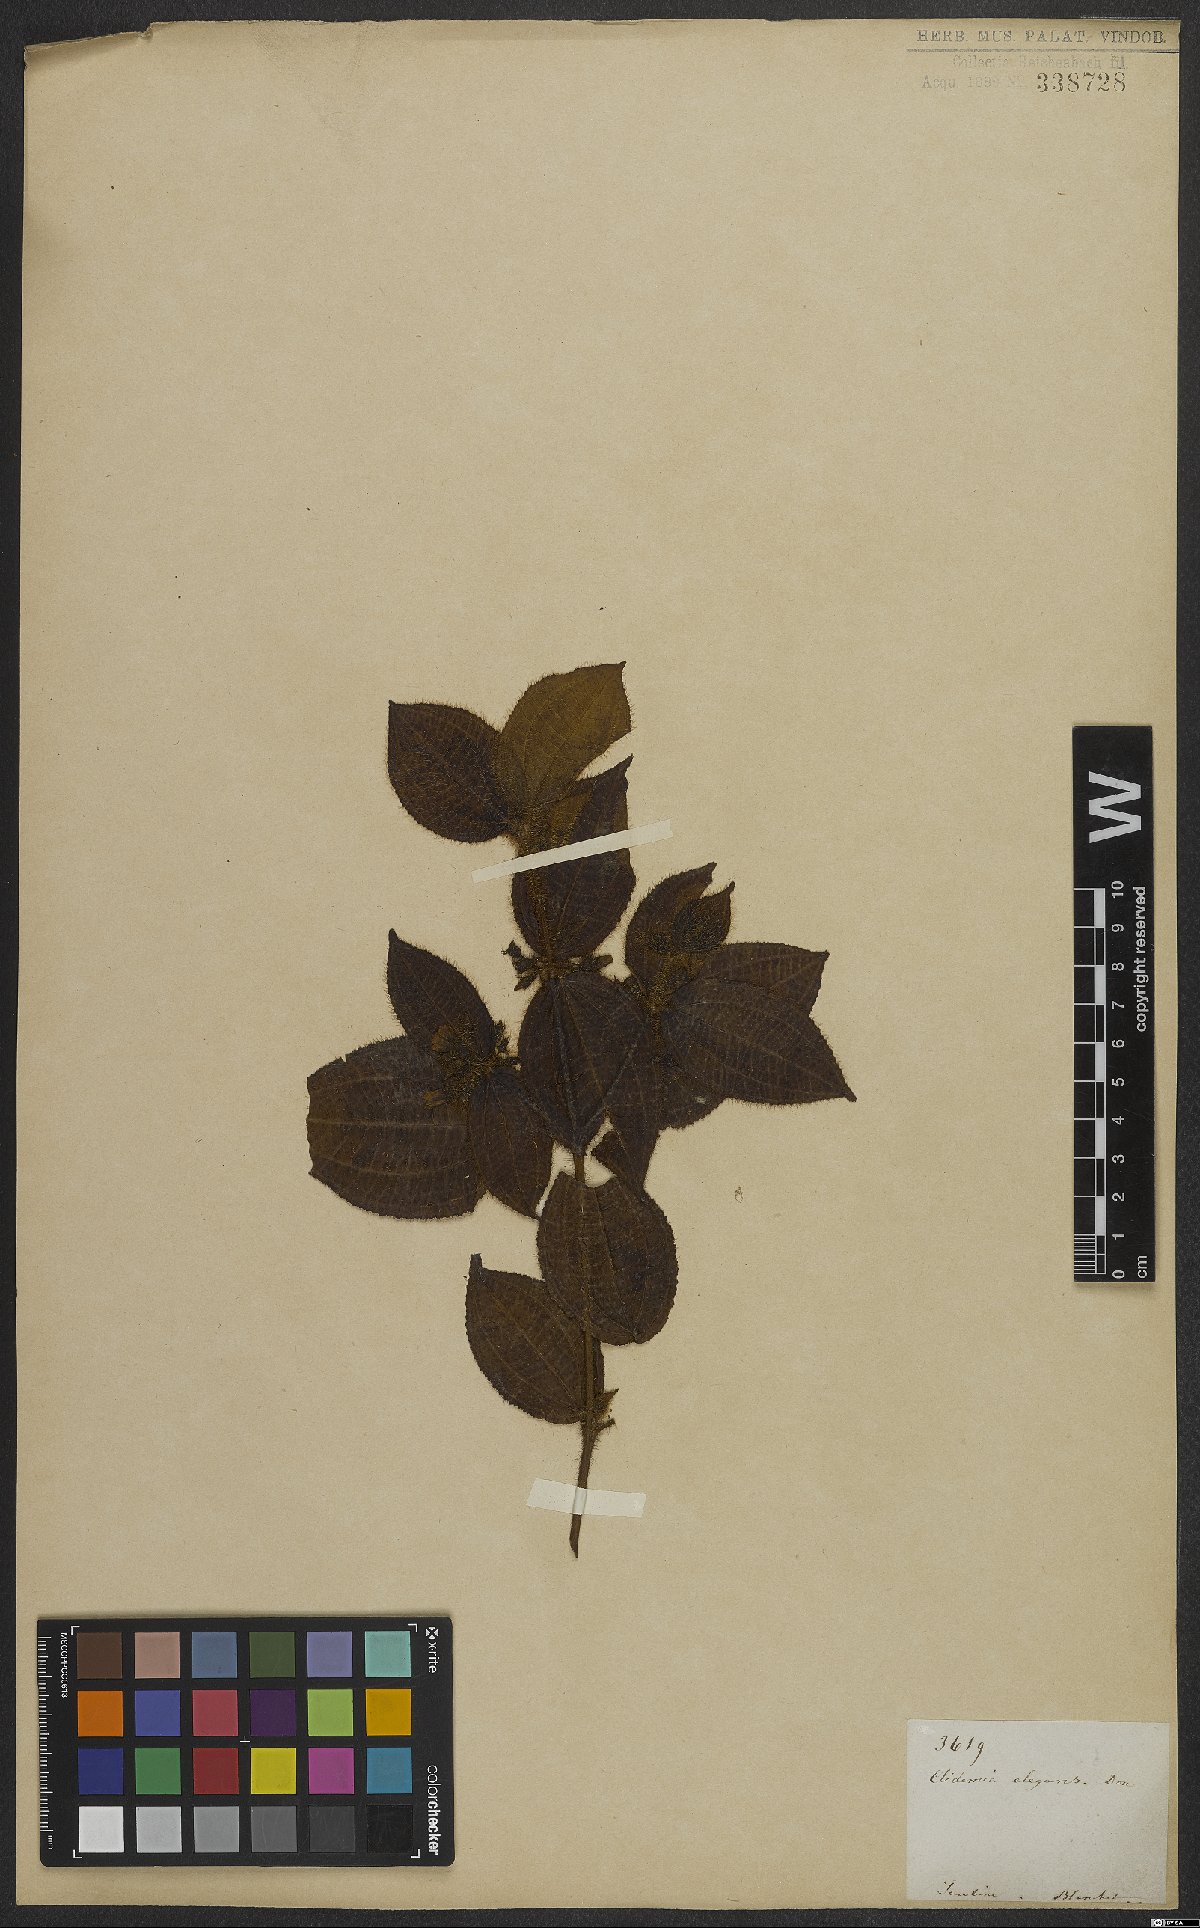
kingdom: Plantae
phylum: Tracheophyta
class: Magnoliopsida
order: Myrtales
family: Melastomataceae
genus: Miconia
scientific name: Miconia crenata
